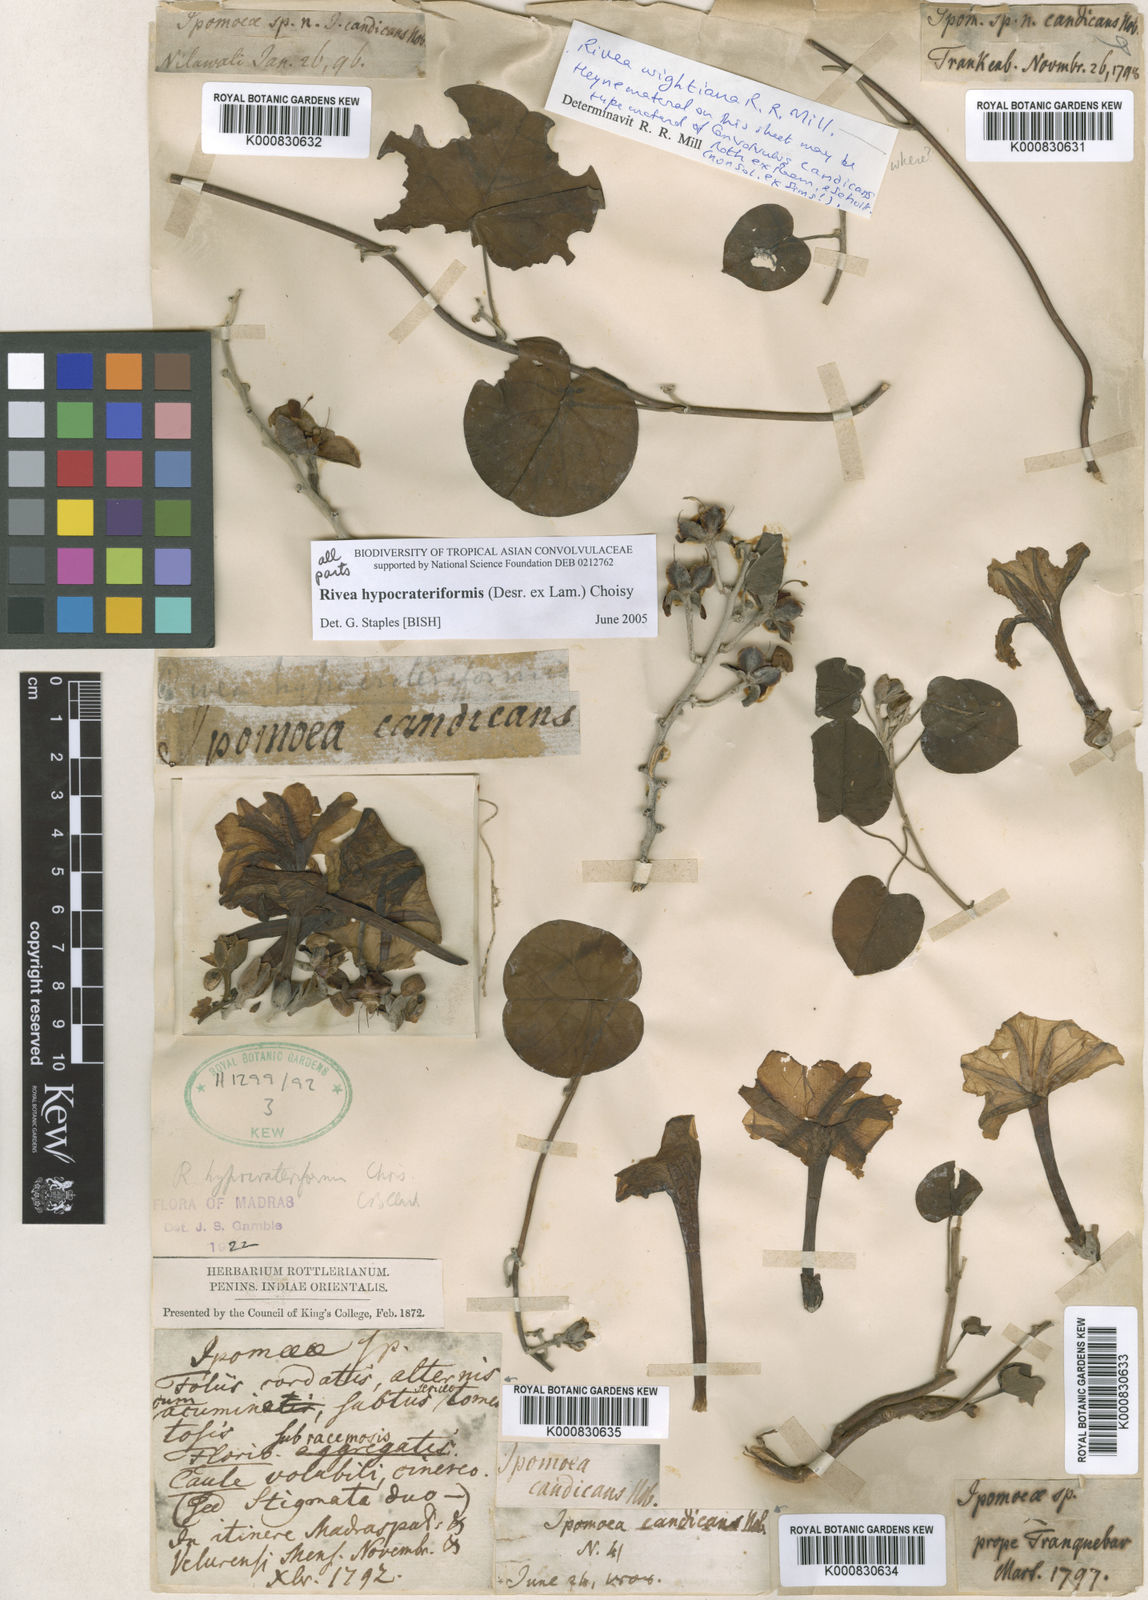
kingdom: Plantae
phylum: Tracheophyta
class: Magnoliopsida
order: Solanales
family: Convolvulaceae
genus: Rivea
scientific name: Rivea hypocrateriformis
